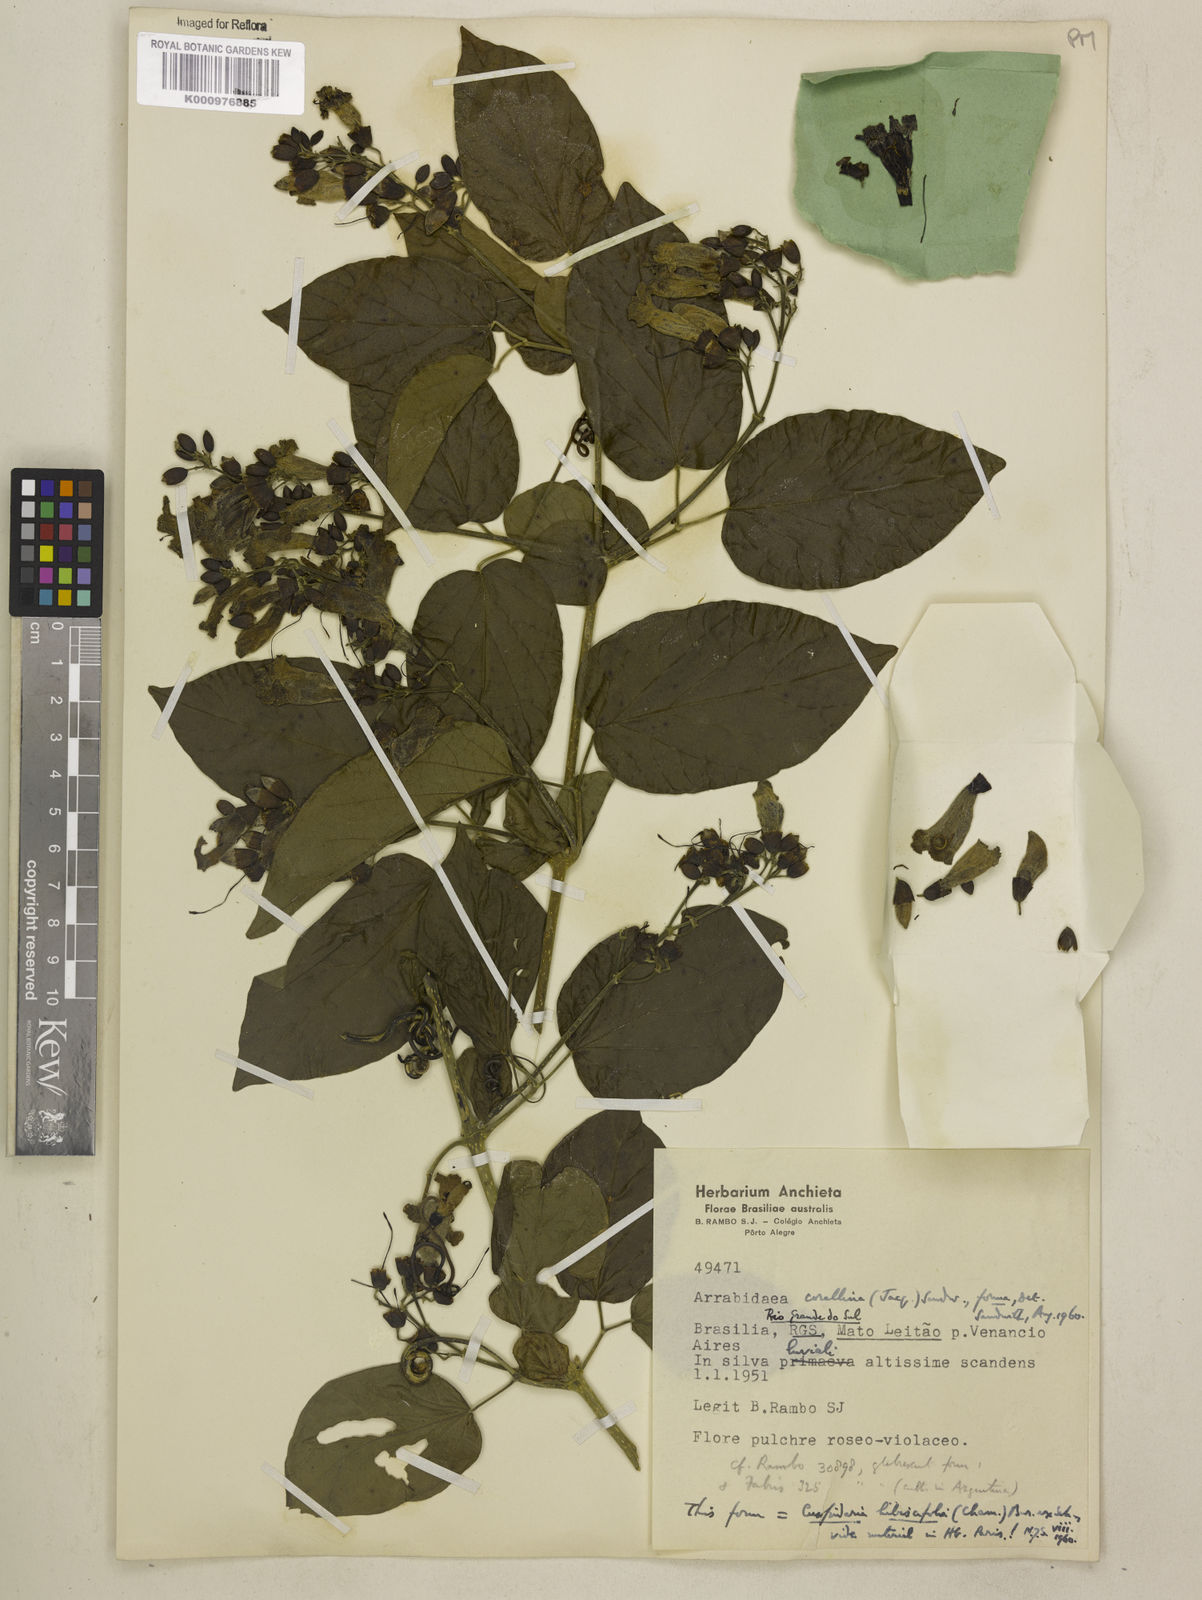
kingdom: Plantae
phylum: Tracheophyta
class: Magnoliopsida
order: Lamiales
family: Bignoniaceae
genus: Tanaecium
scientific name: Tanaecium dichotomum
